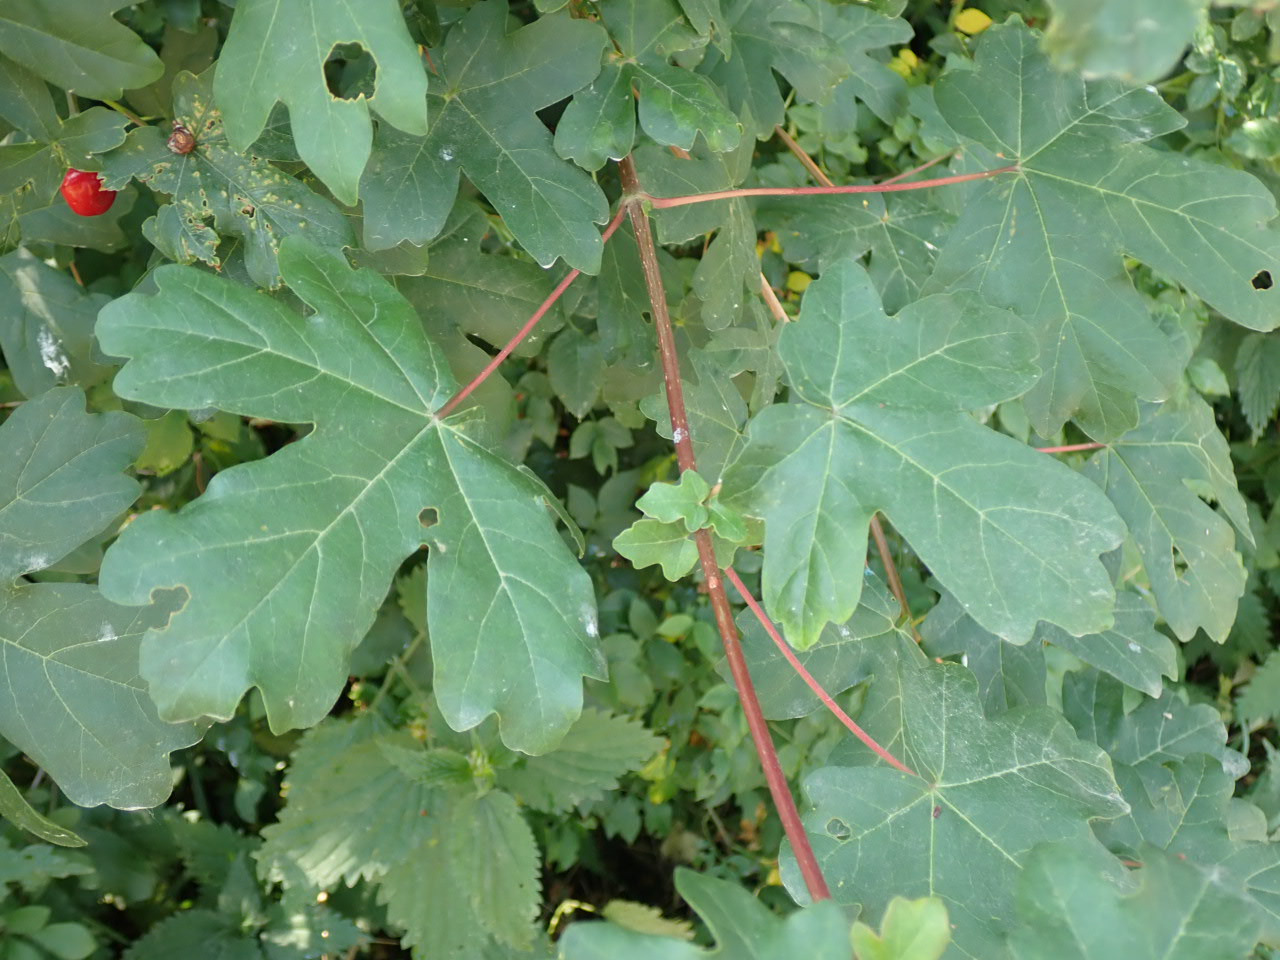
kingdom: Plantae
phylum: Tracheophyta
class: Magnoliopsida
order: Sapindales
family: Sapindaceae
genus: Acer
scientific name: Acer campestre
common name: Navr
